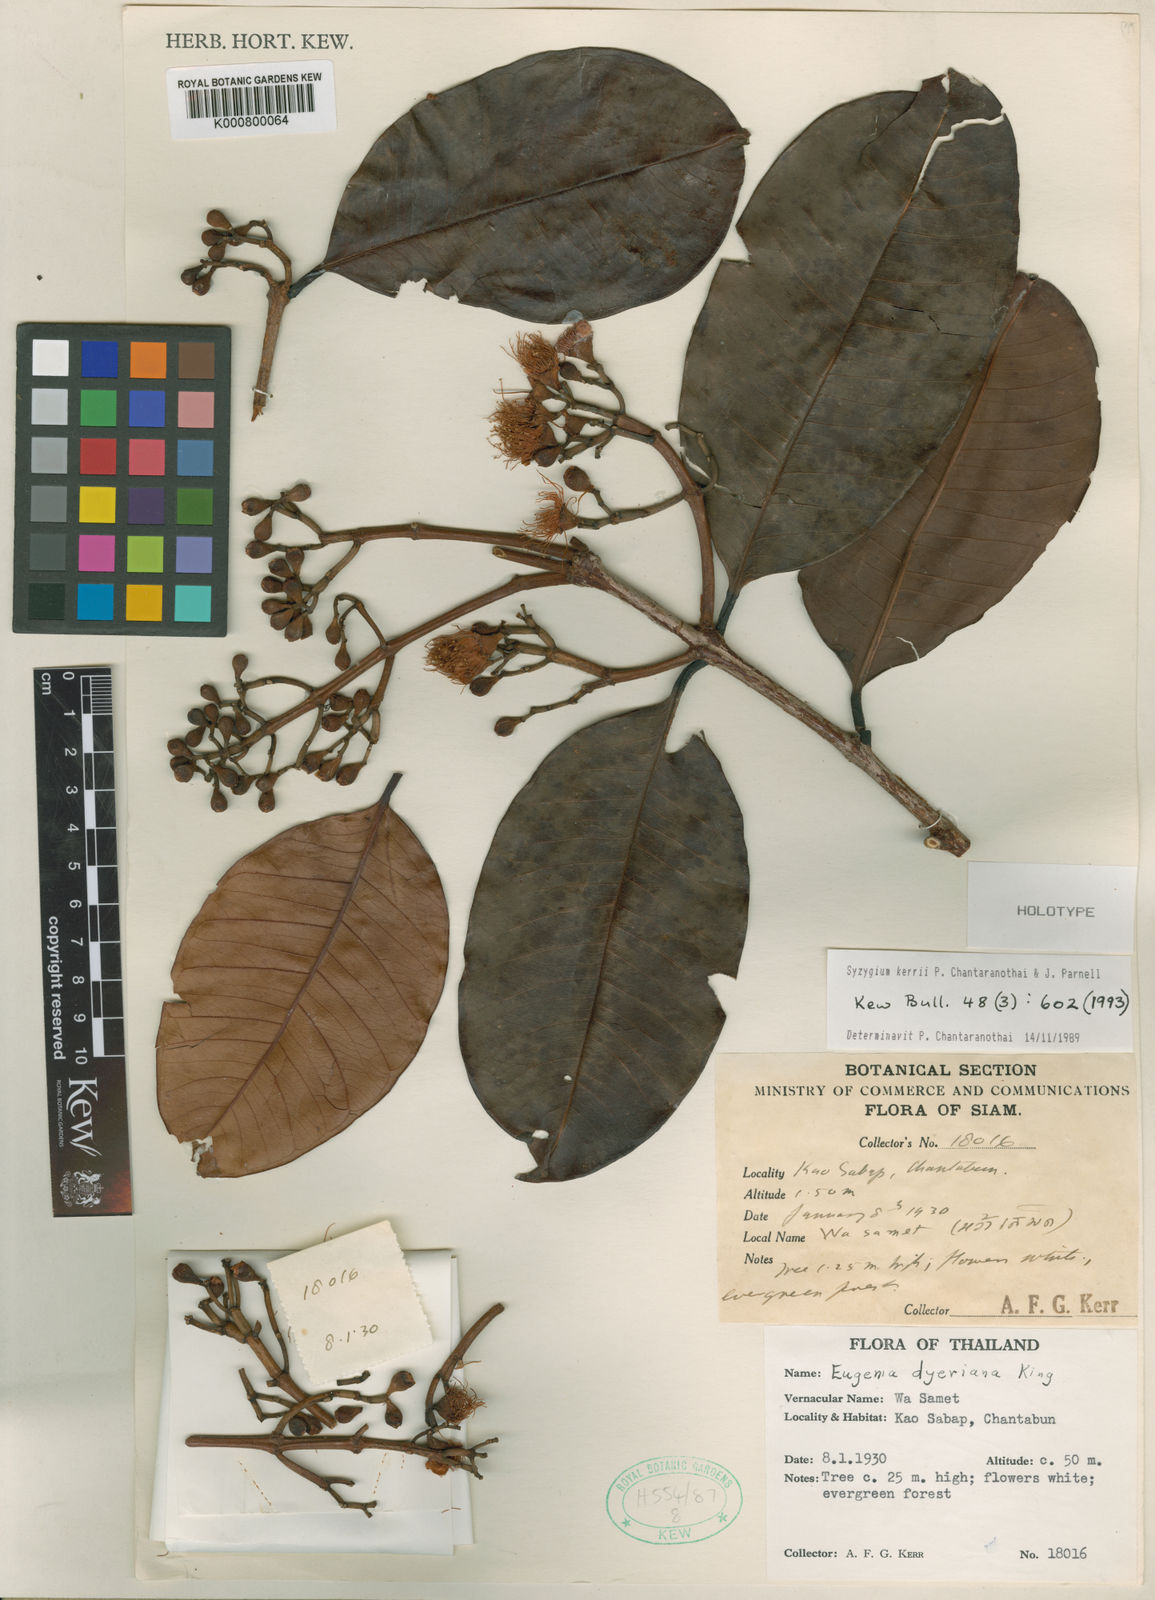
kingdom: Plantae
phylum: Tracheophyta
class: Magnoliopsida
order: Myrtales
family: Myrtaceae
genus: Syzygium
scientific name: Syzygium kerrii
